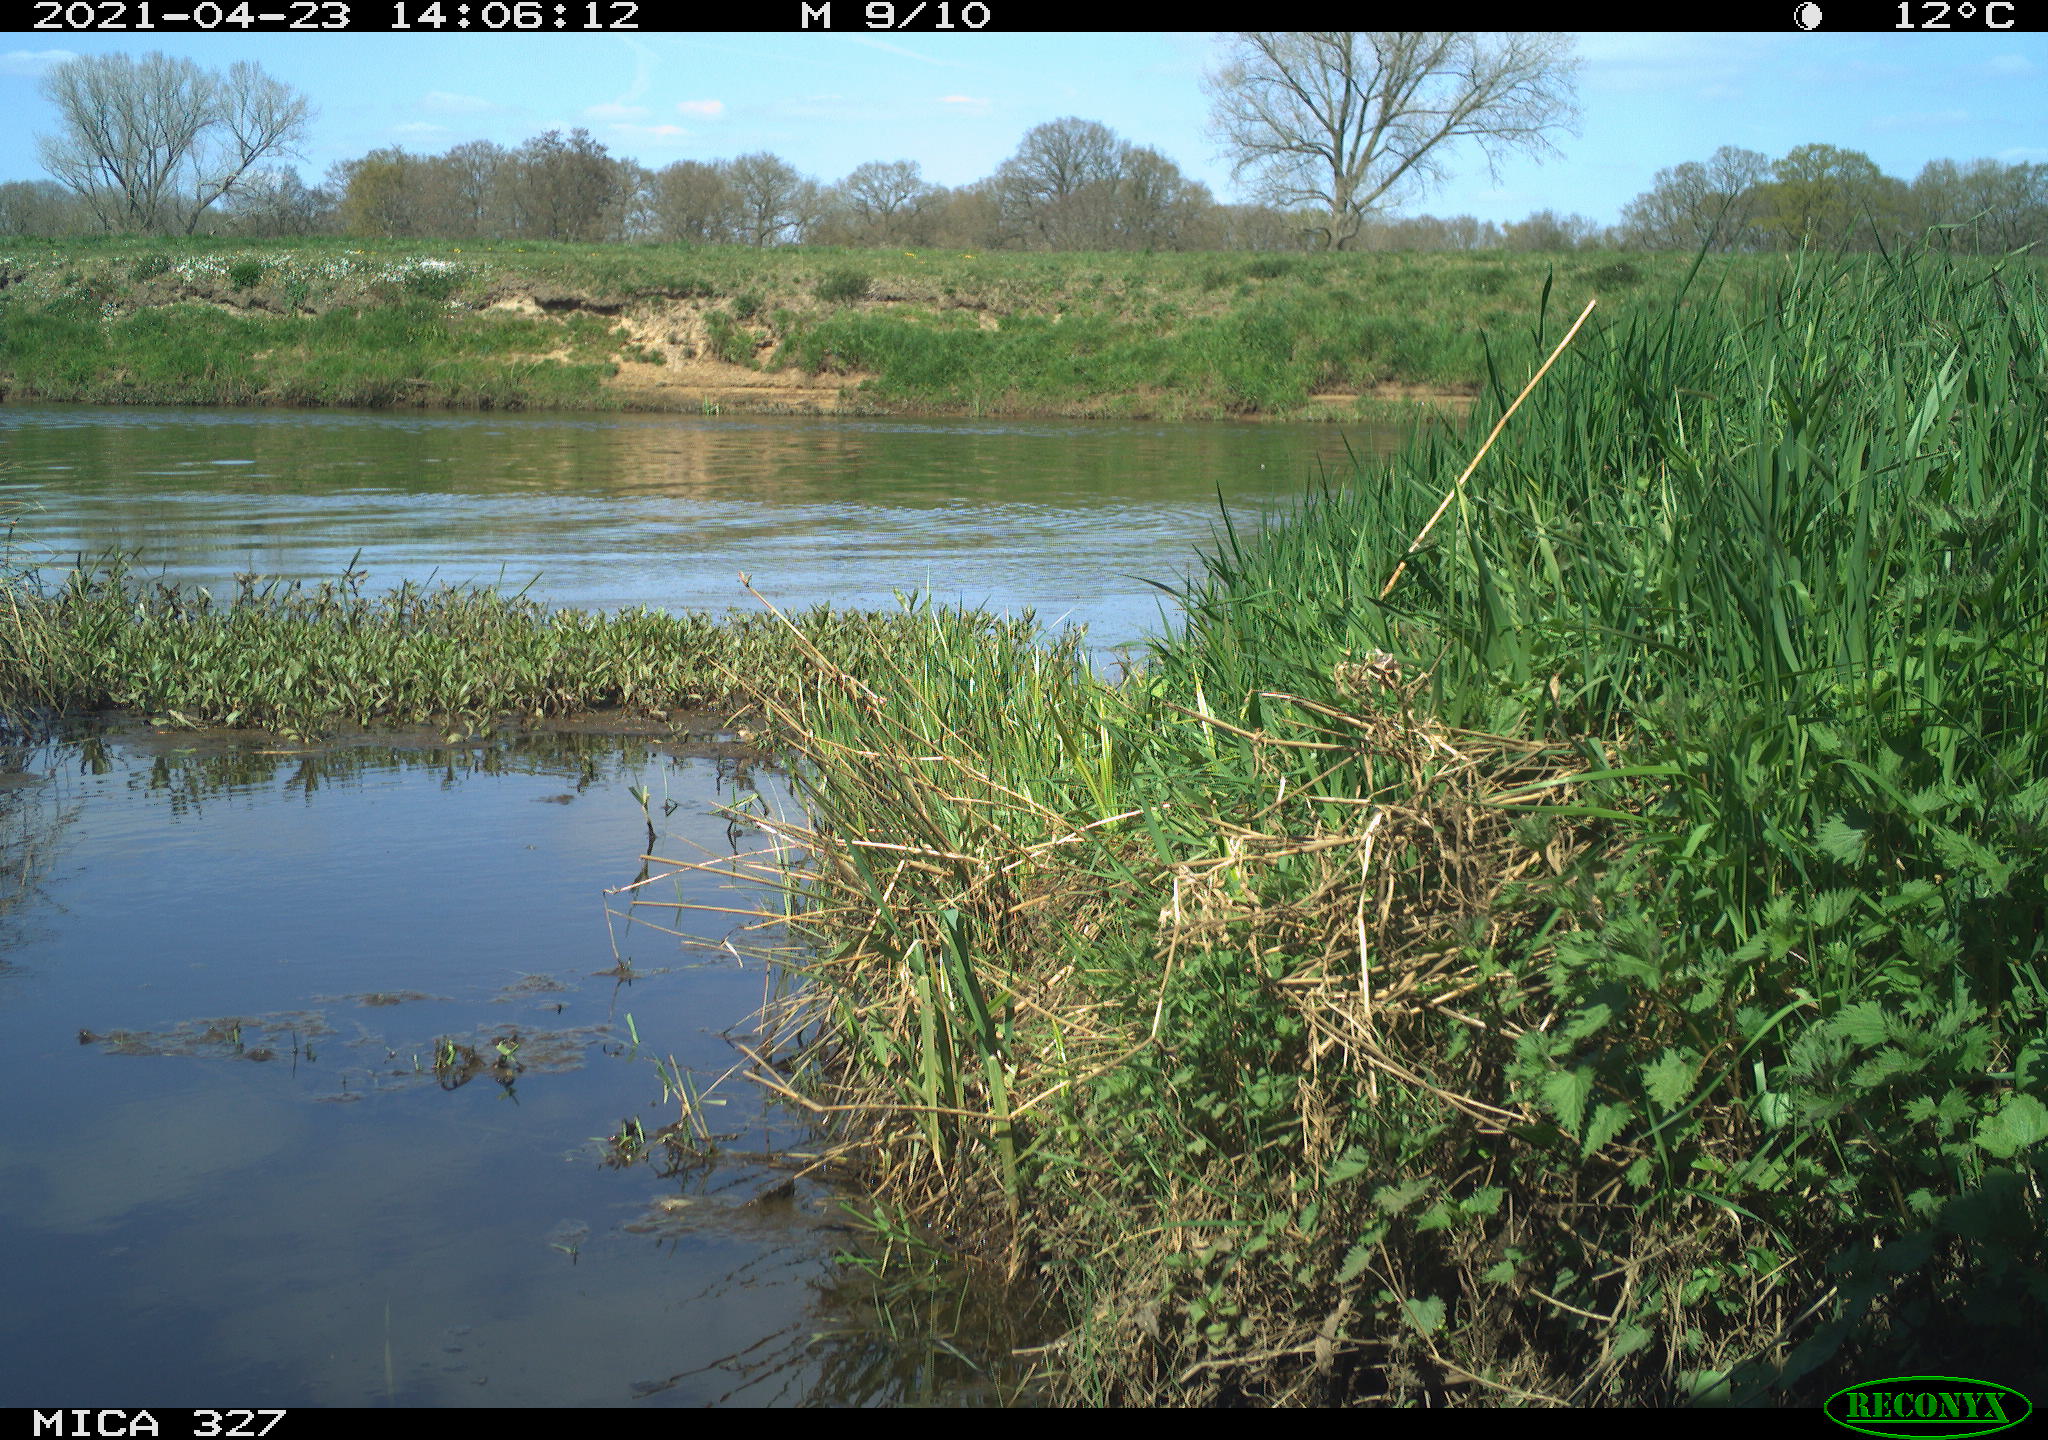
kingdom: Animalia
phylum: Chordata
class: Aves
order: Passeriformes
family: Corvidae
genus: Corvus
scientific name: Corvus corone
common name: Carrion crow
